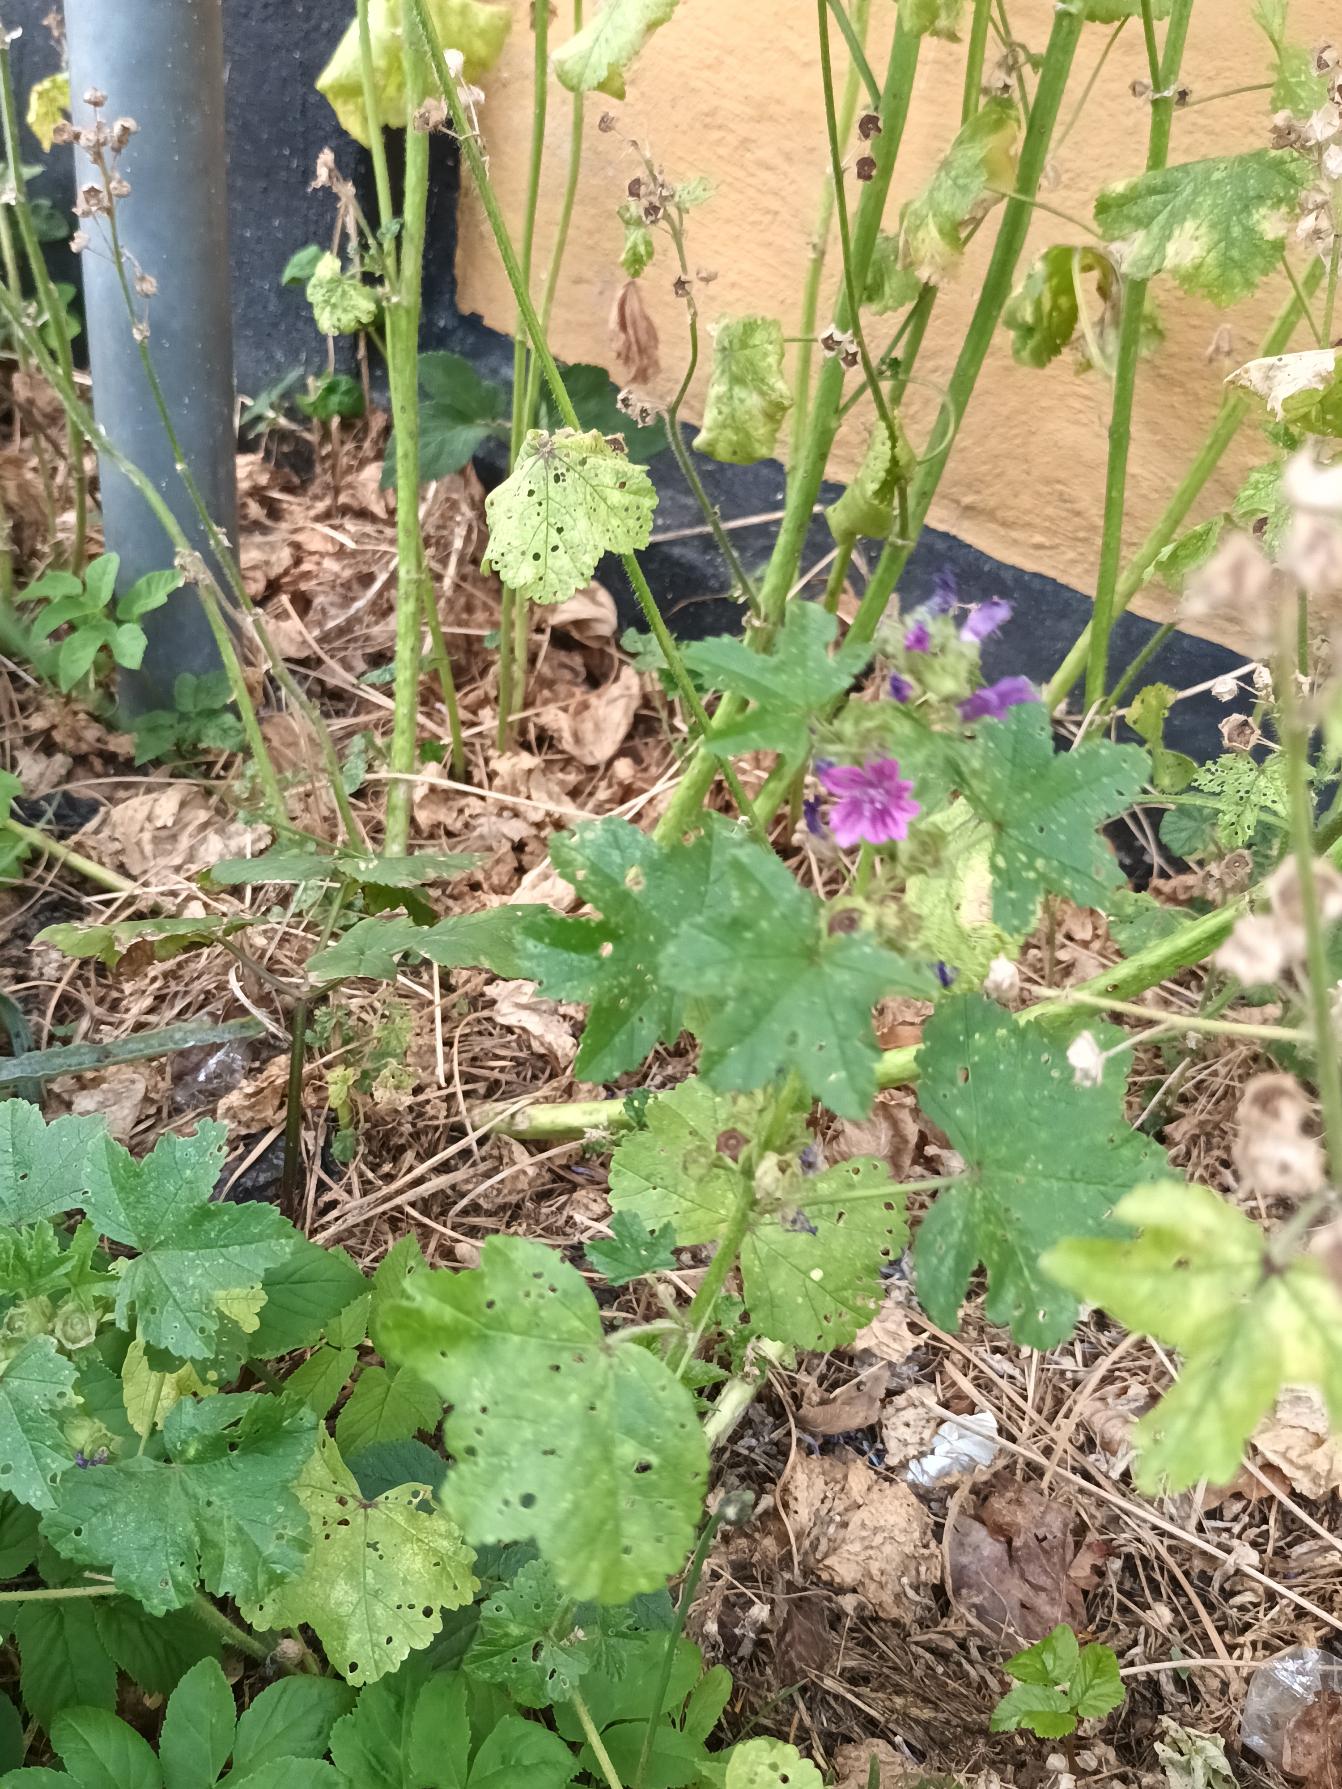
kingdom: Plantae
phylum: Tracheophyta
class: Magnoliopsida
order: Malvales
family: Malvaceae
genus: Malva
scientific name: Malva sylvestris
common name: Almindelig katost
